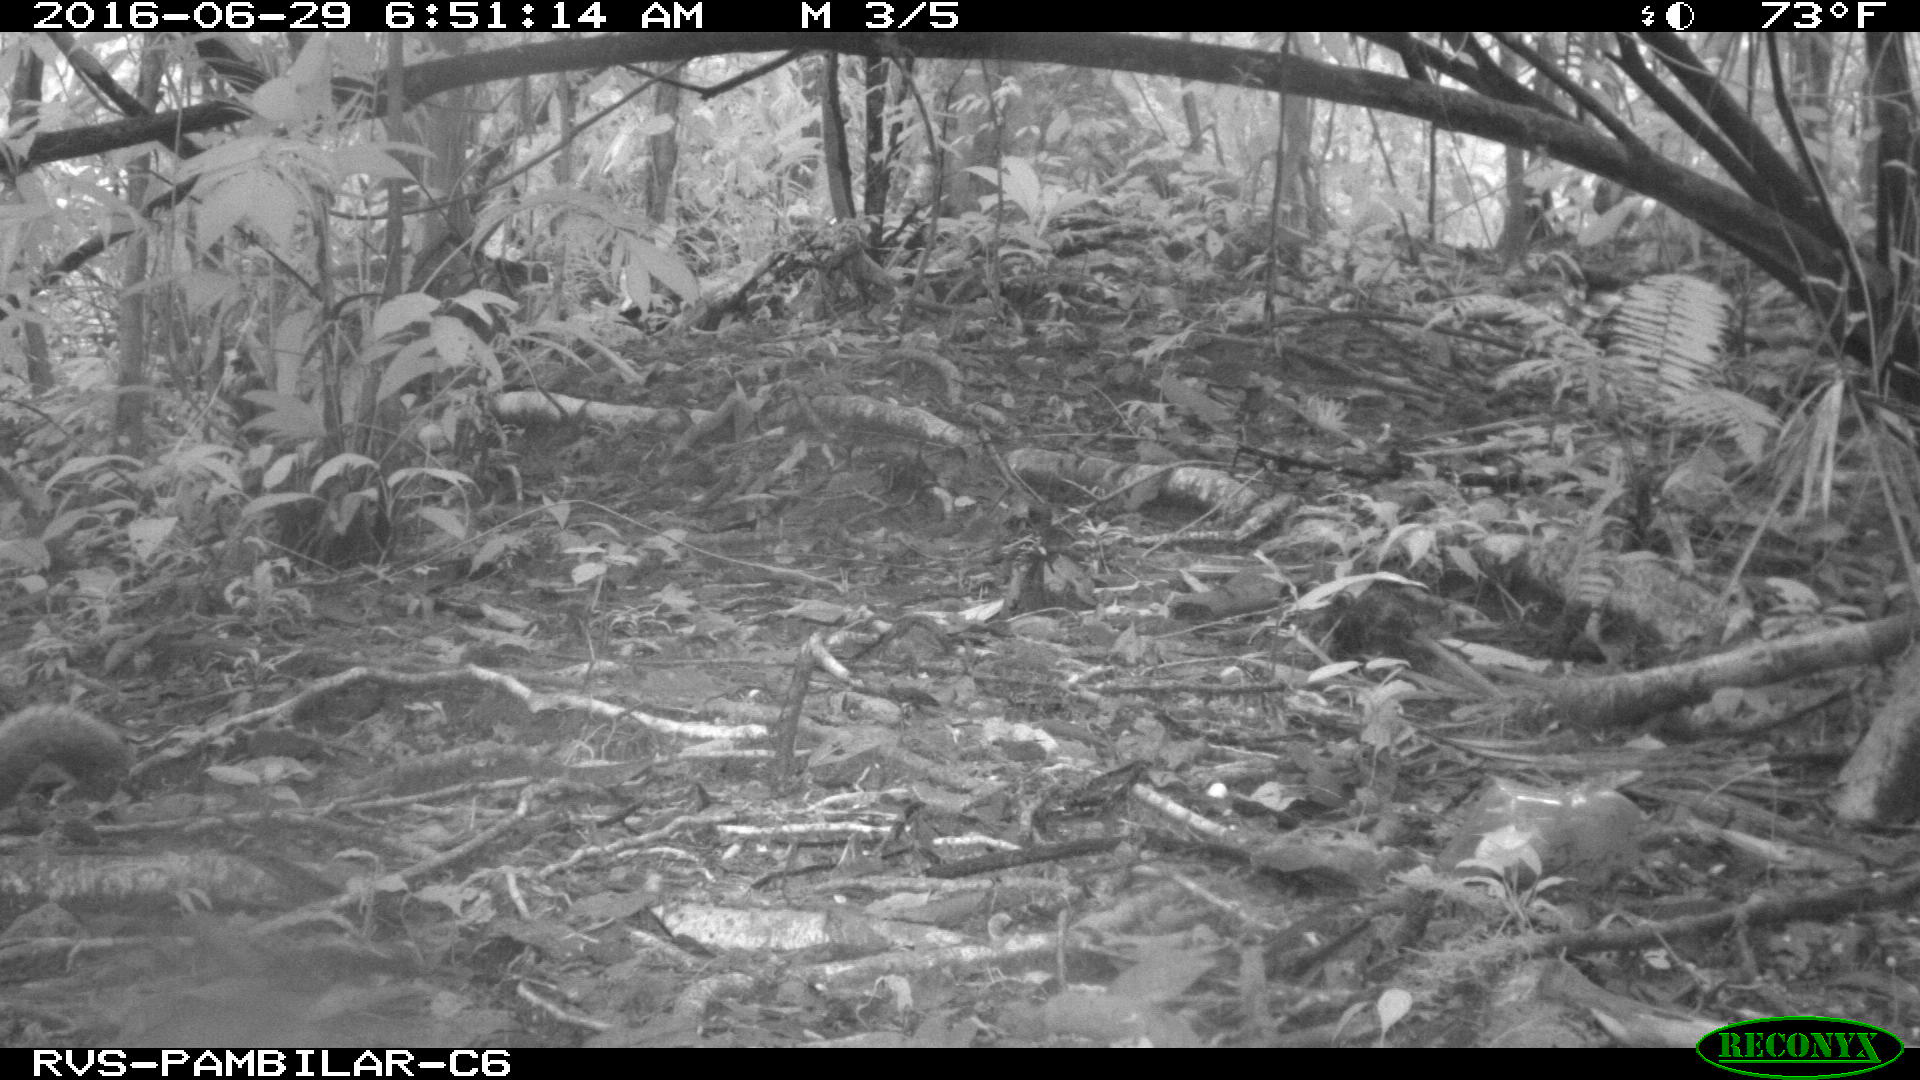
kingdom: Animalia
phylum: Chordata
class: Mammalia
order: Rodentia
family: Sciuridae
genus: Sciurus
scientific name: Sciurus granatensis
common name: Red-tailed squirrel
